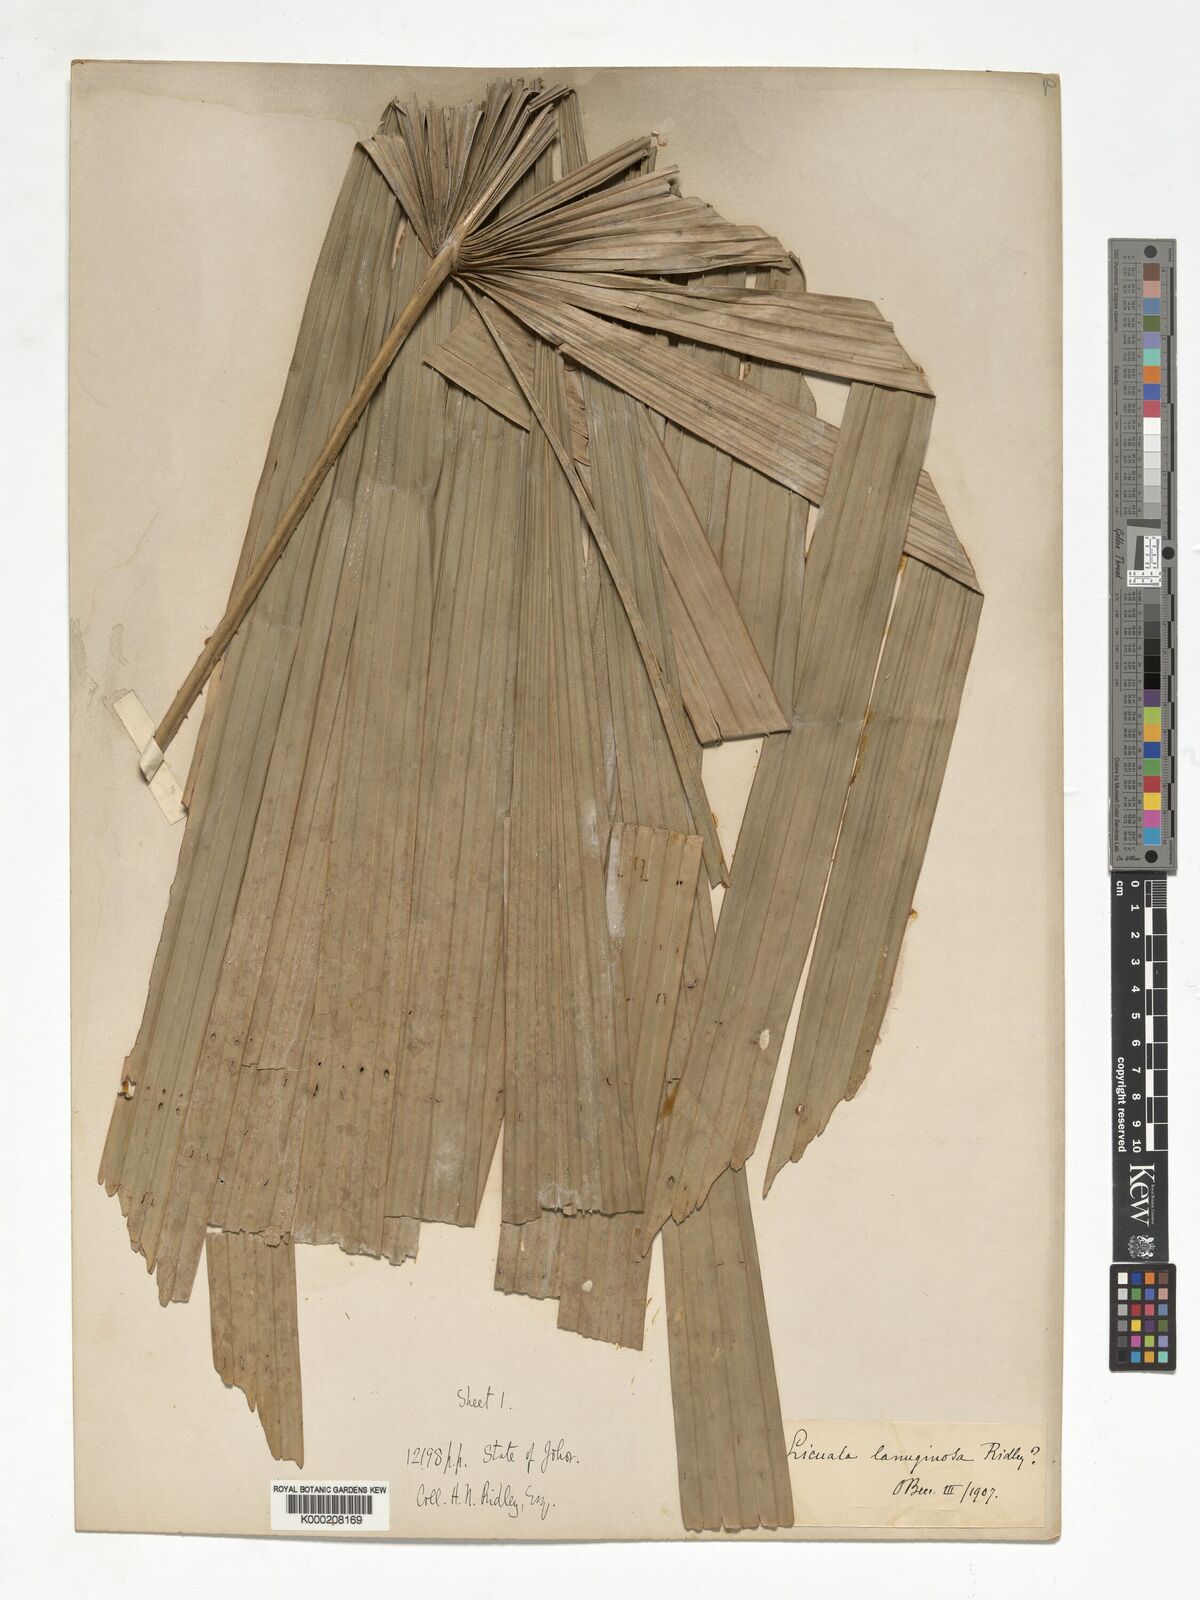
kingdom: Plantae
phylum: Tracheophyta
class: Liliopsida
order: Arecales
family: Arecaceae
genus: Licuala
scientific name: Licuala
